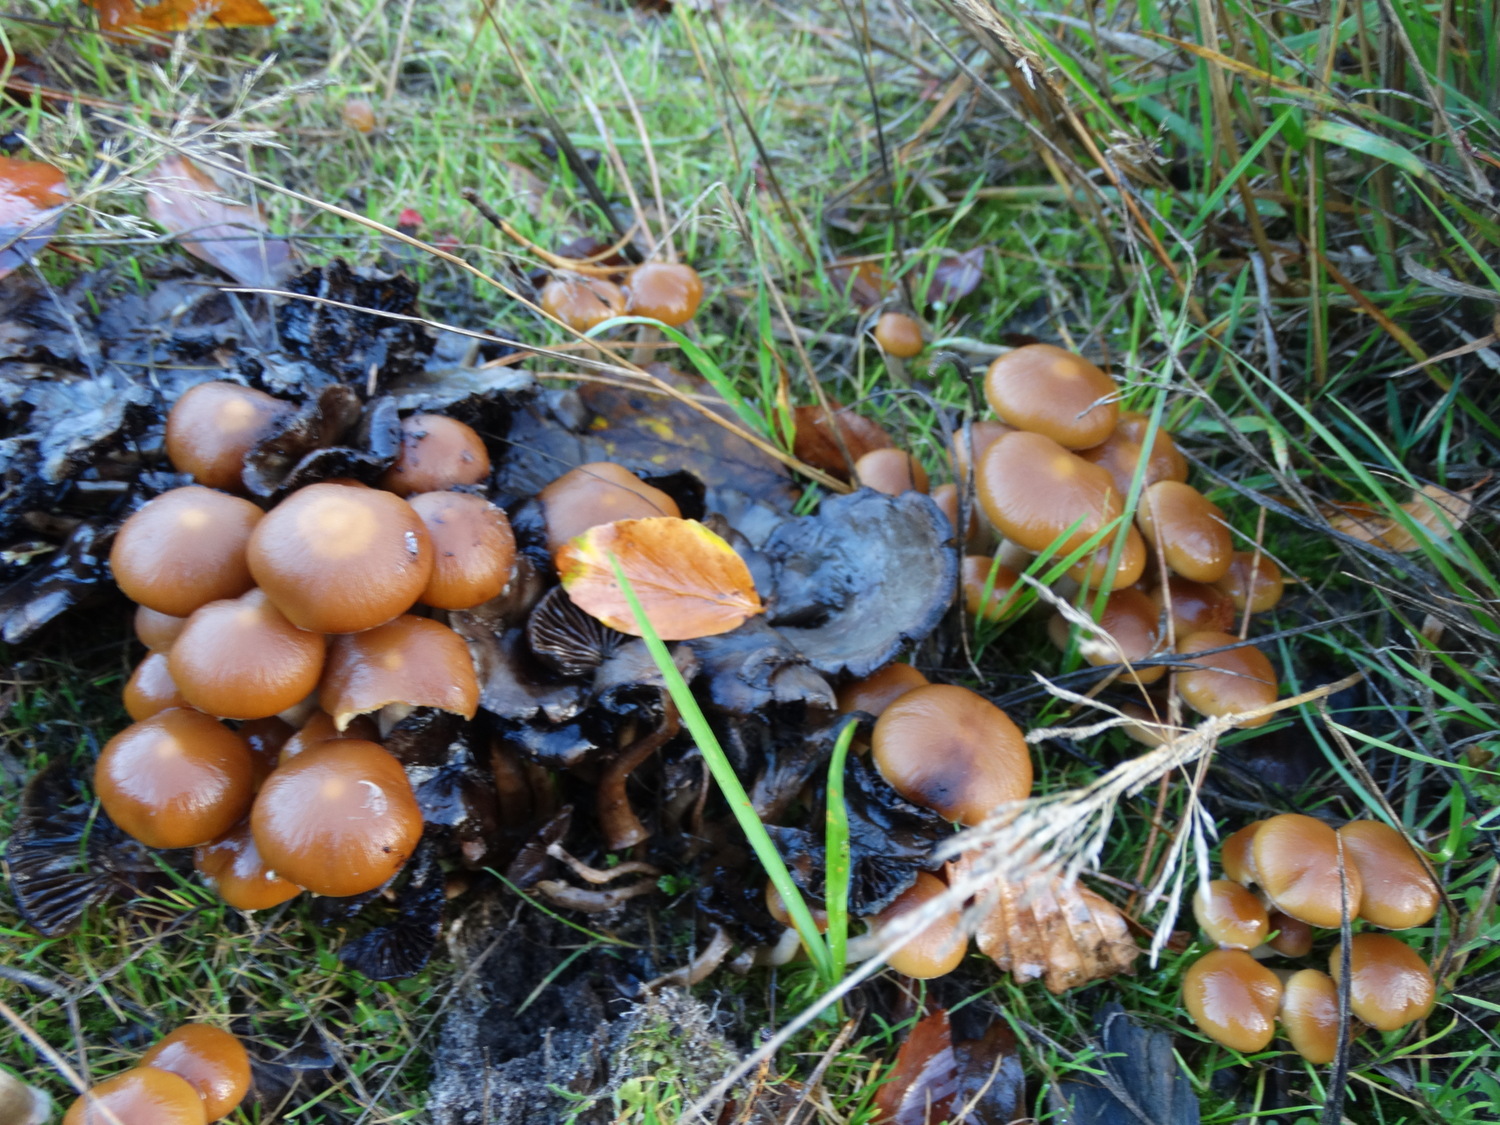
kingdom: Fungi
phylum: Basidiomycota
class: Agaricomycetes
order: Agaricales
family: Psathyrellaceae
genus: Psathyrella
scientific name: Psathyrella piluliformis
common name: lysstokket mørkhat
